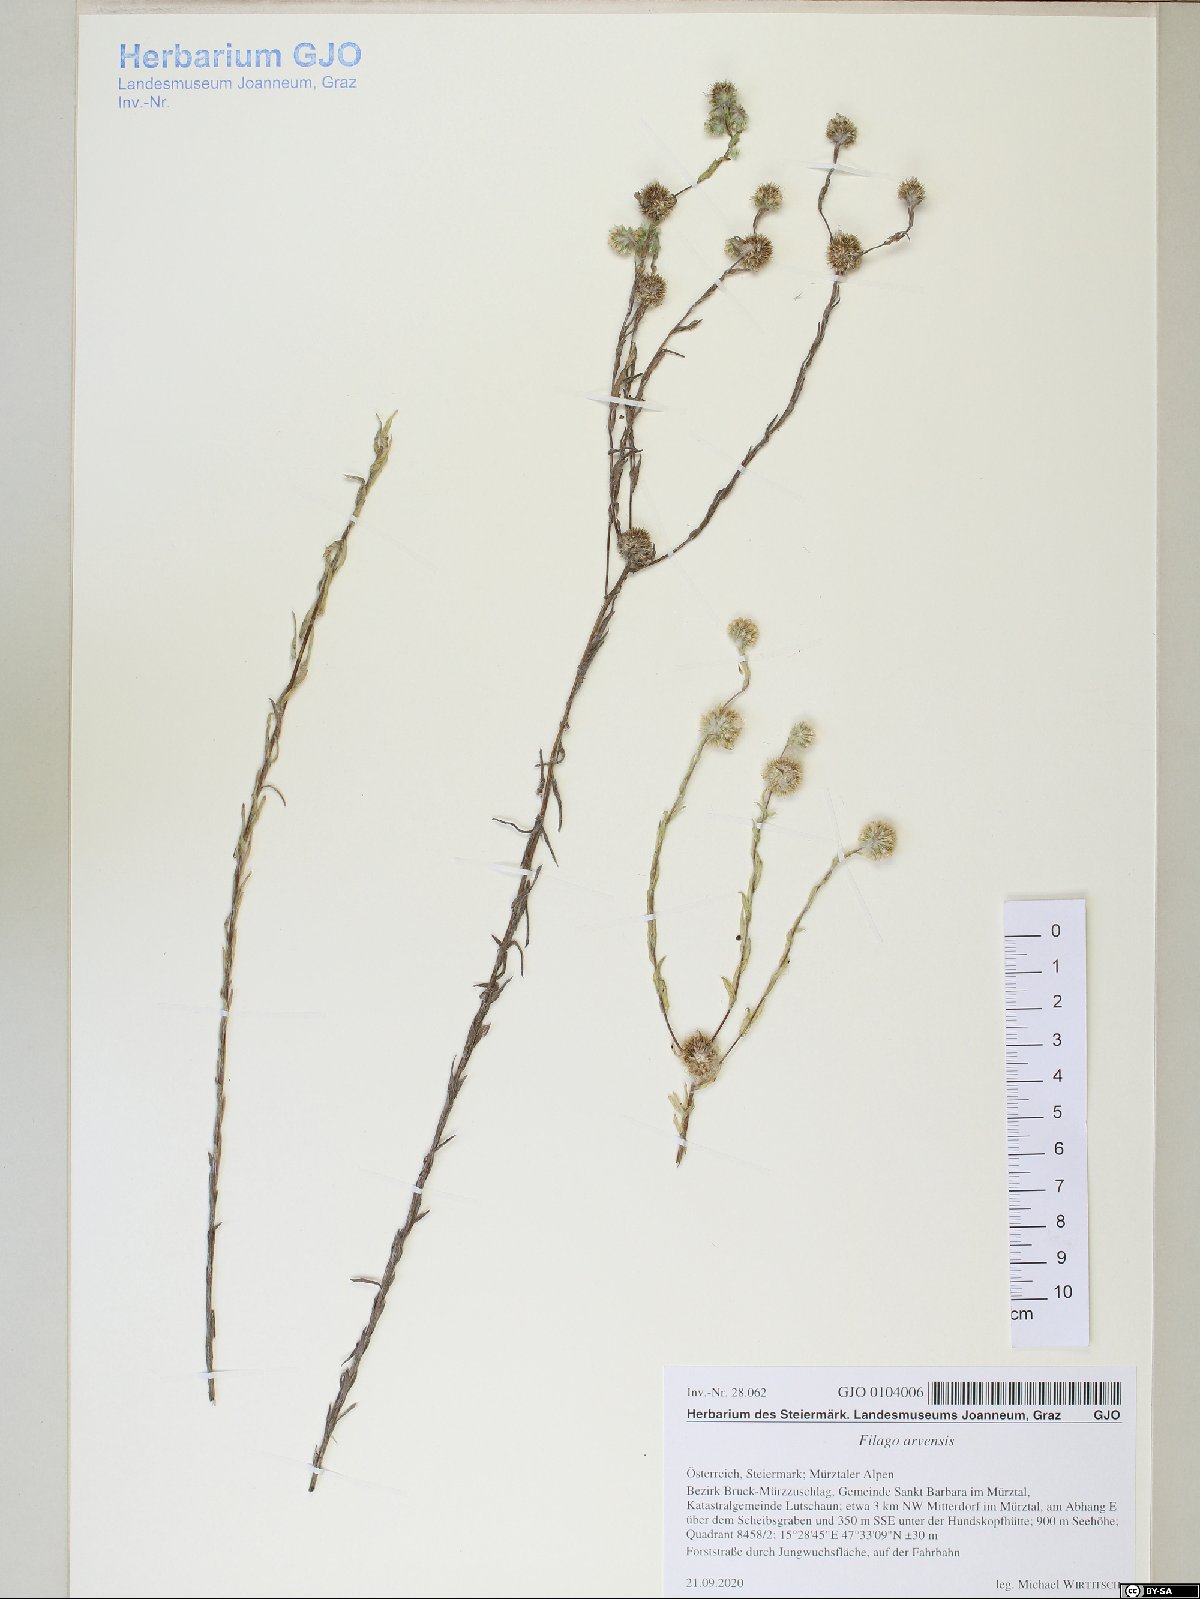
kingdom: Plantae
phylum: Tracheophyta
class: Magnoliopsida
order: Asterales
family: Asteraceae
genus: Filago
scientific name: Filago arvensis
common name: Field cudweed
